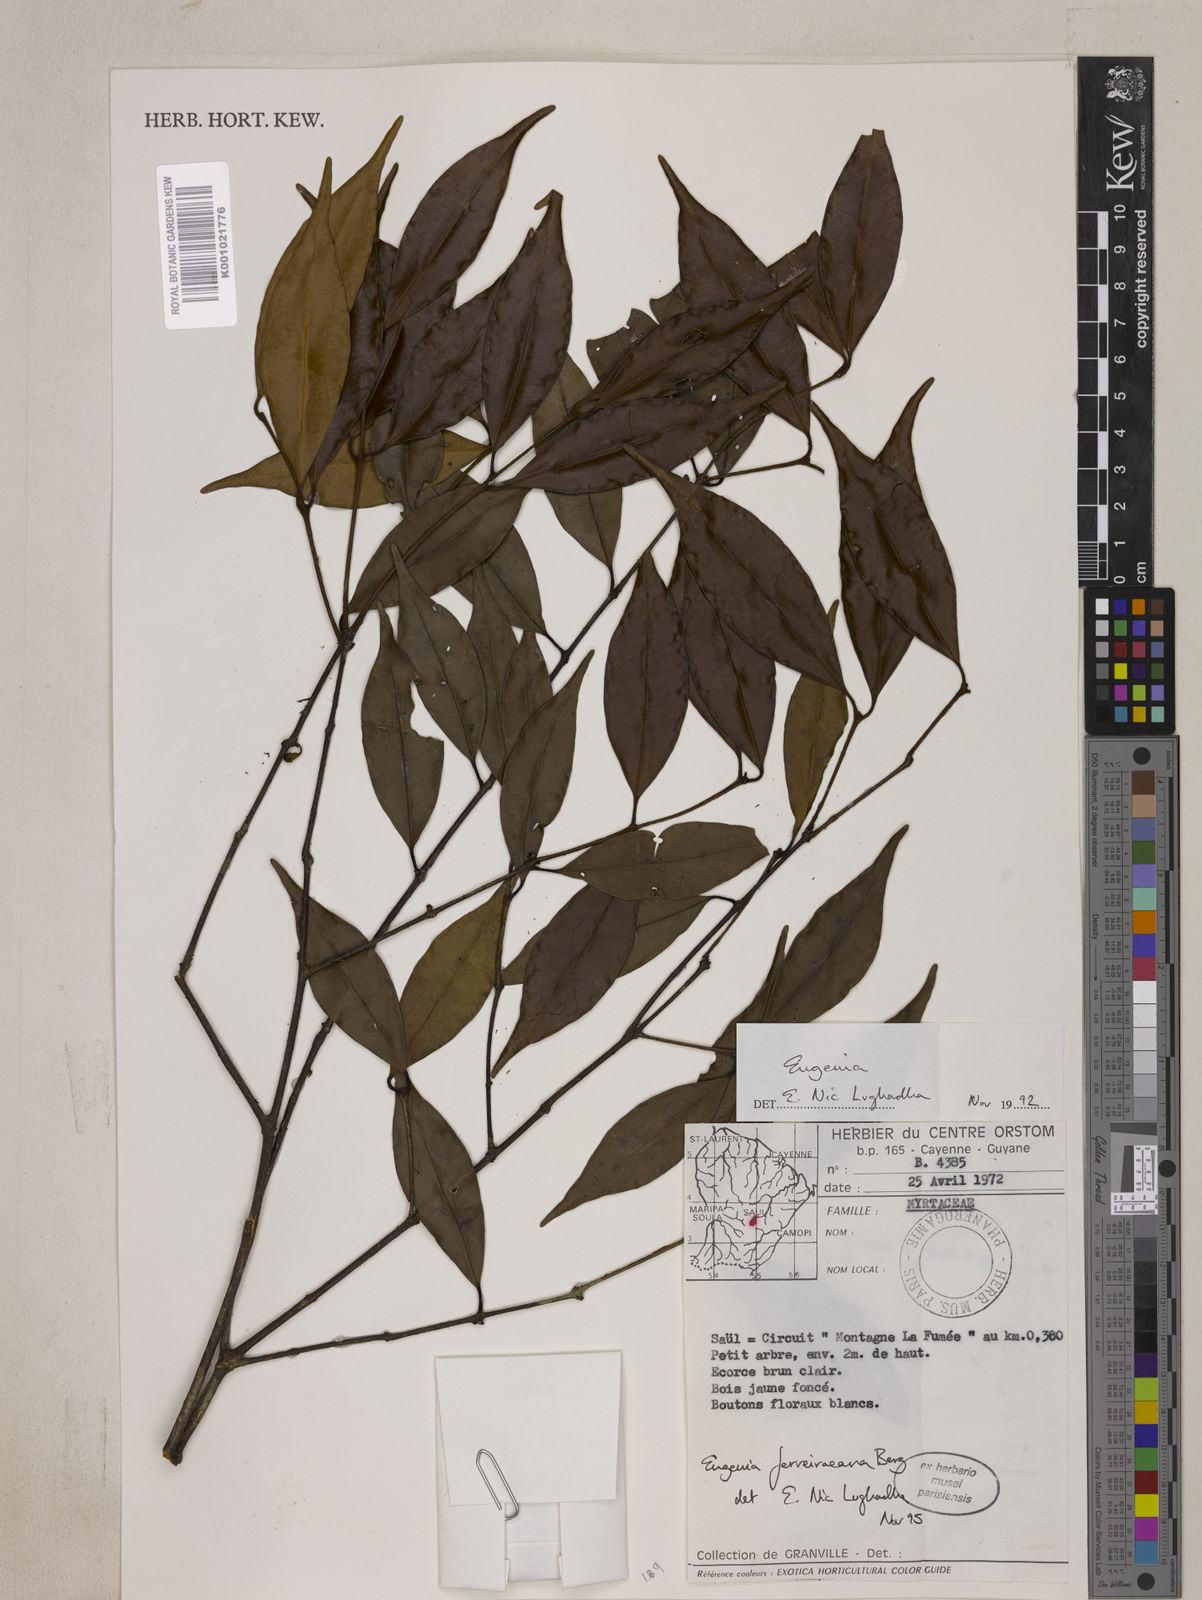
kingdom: Plantae
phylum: Tracheophyta
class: Magnoliopsida
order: Myrtales
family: Myrtaceae
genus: Eugenia
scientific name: Eugenia ferreiraeana
